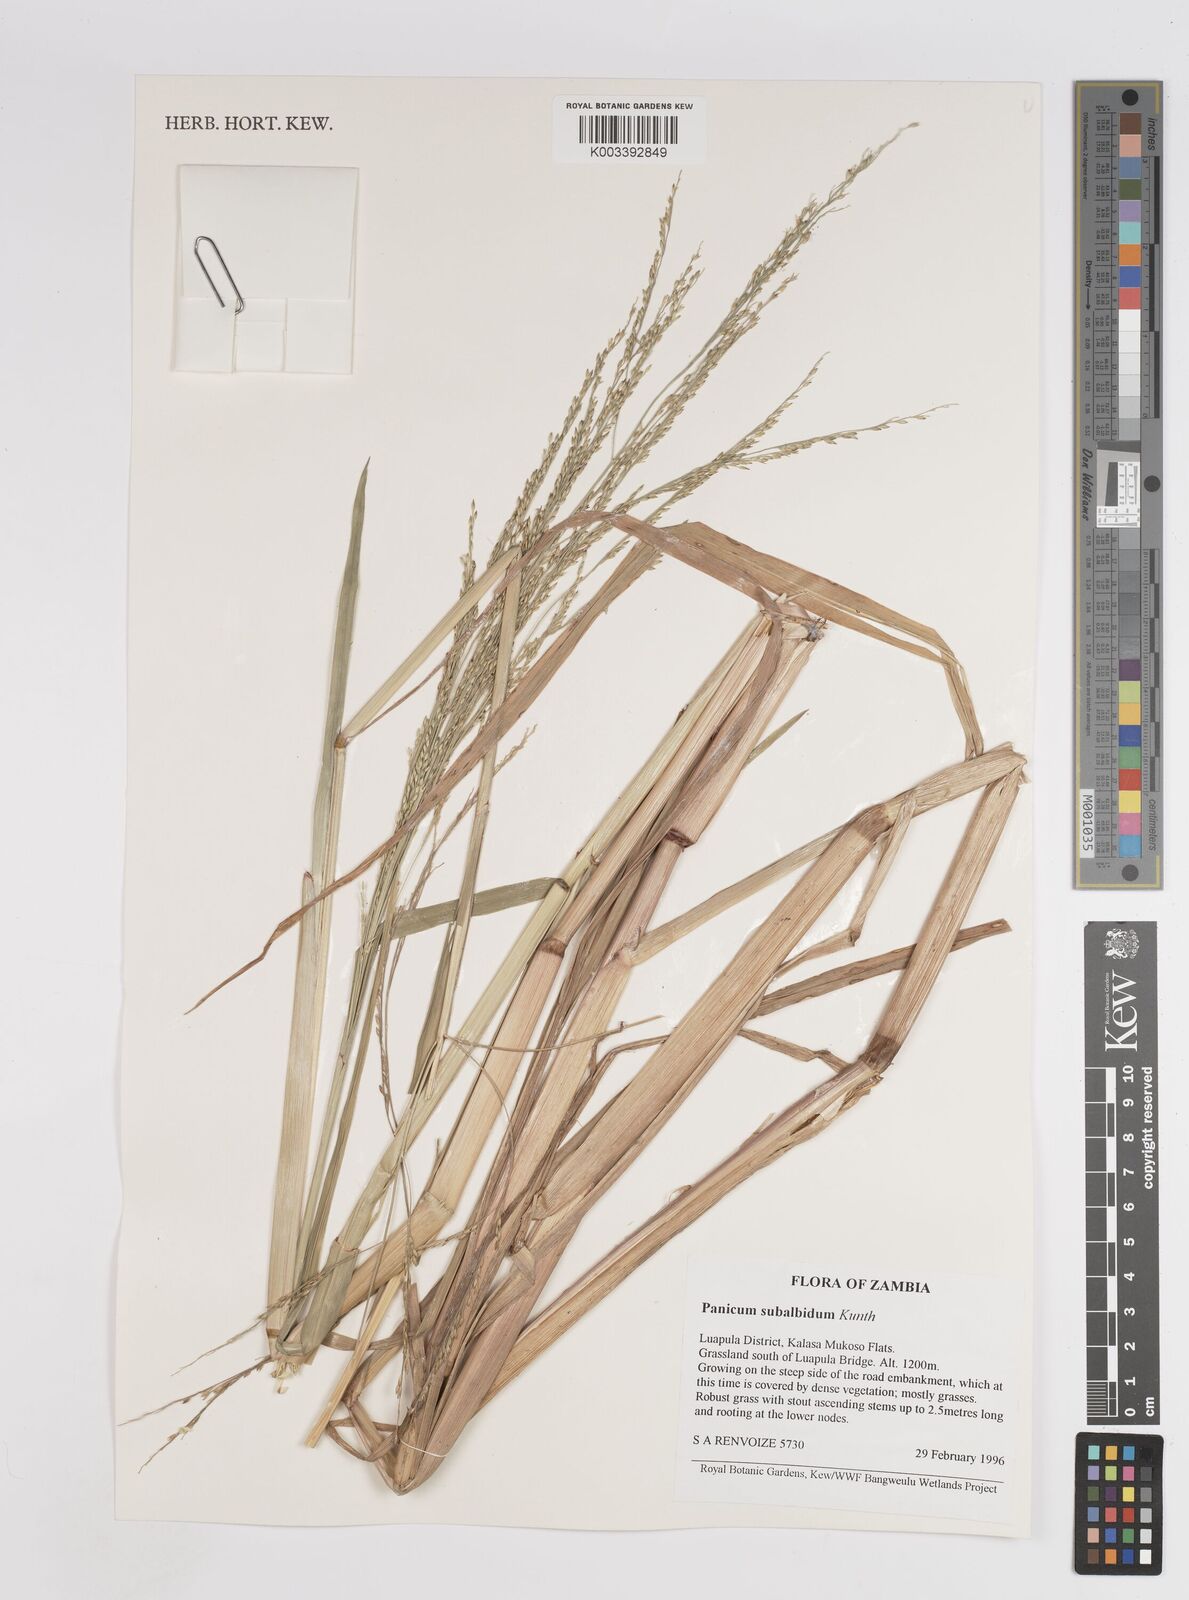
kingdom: Plantae
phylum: Tracheophyta
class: Liliopsida
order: Poales
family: Poaceae
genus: Panicum
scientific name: Panicum subalbidum
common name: Elbow buffalo grass
